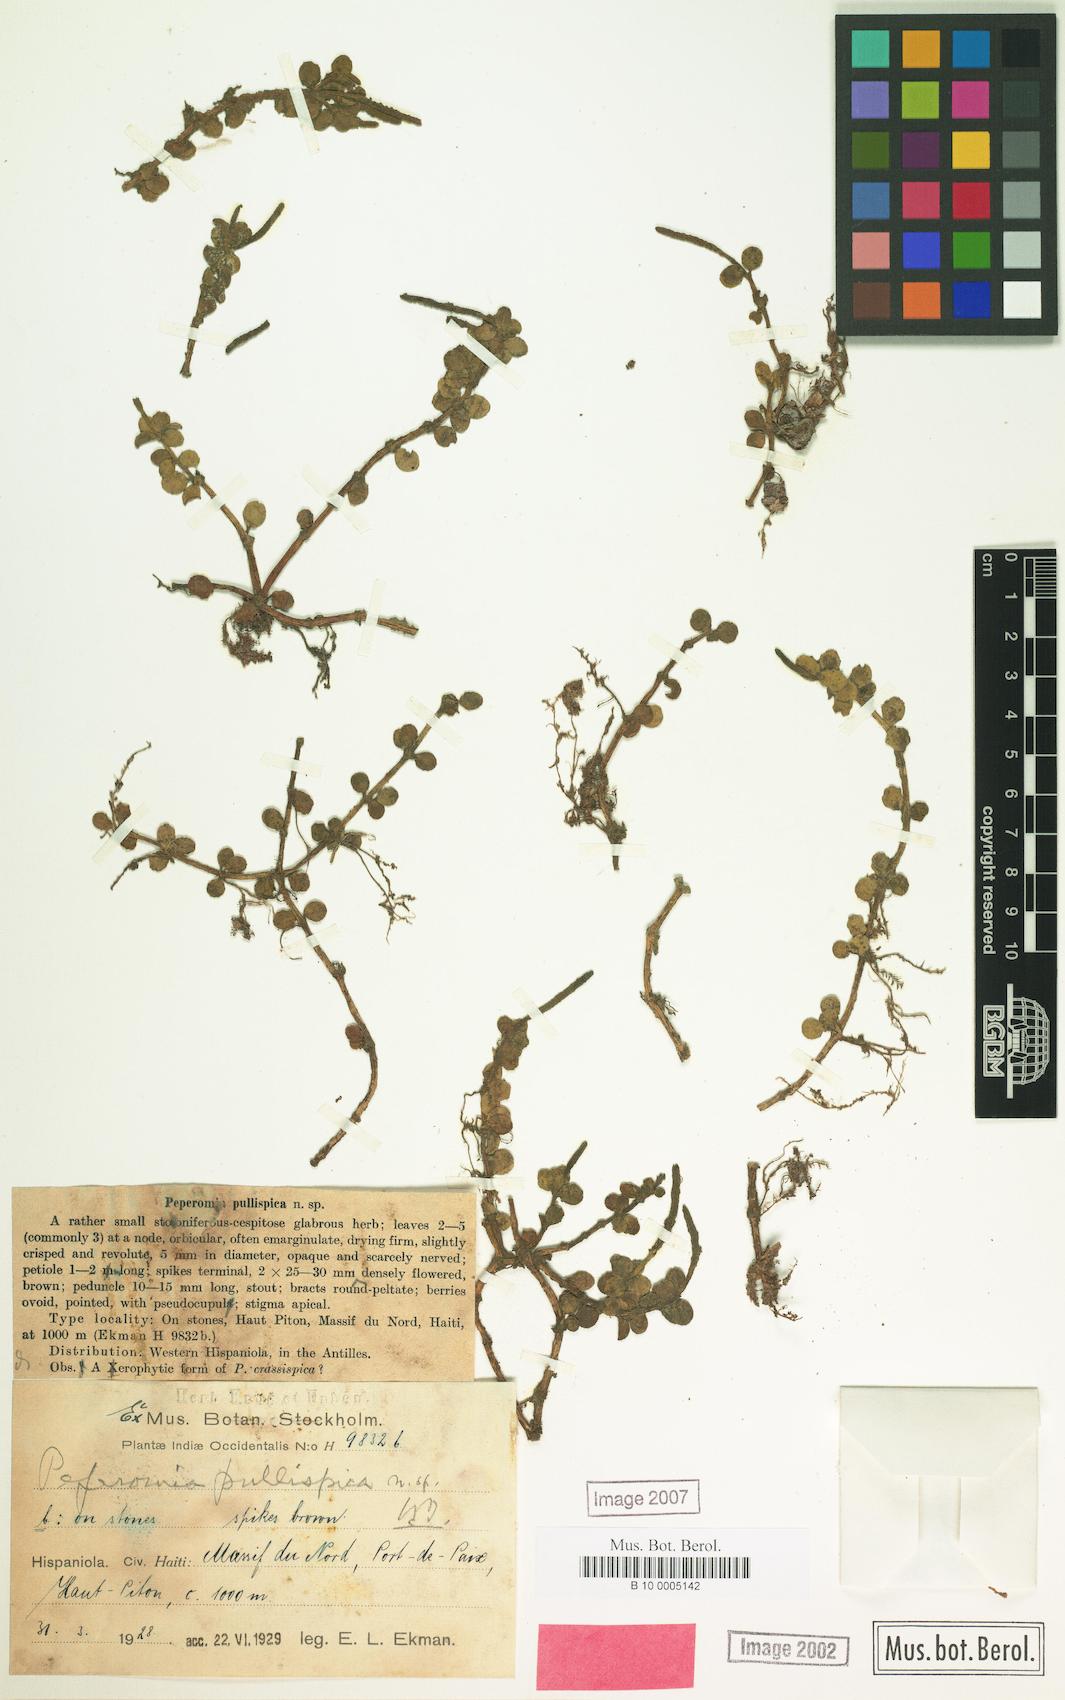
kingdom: Plantae
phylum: Tracheophyta
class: Magnoliopsida
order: Piperales
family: Piperaceae
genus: Peperomia
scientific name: Peperomia pullispica
